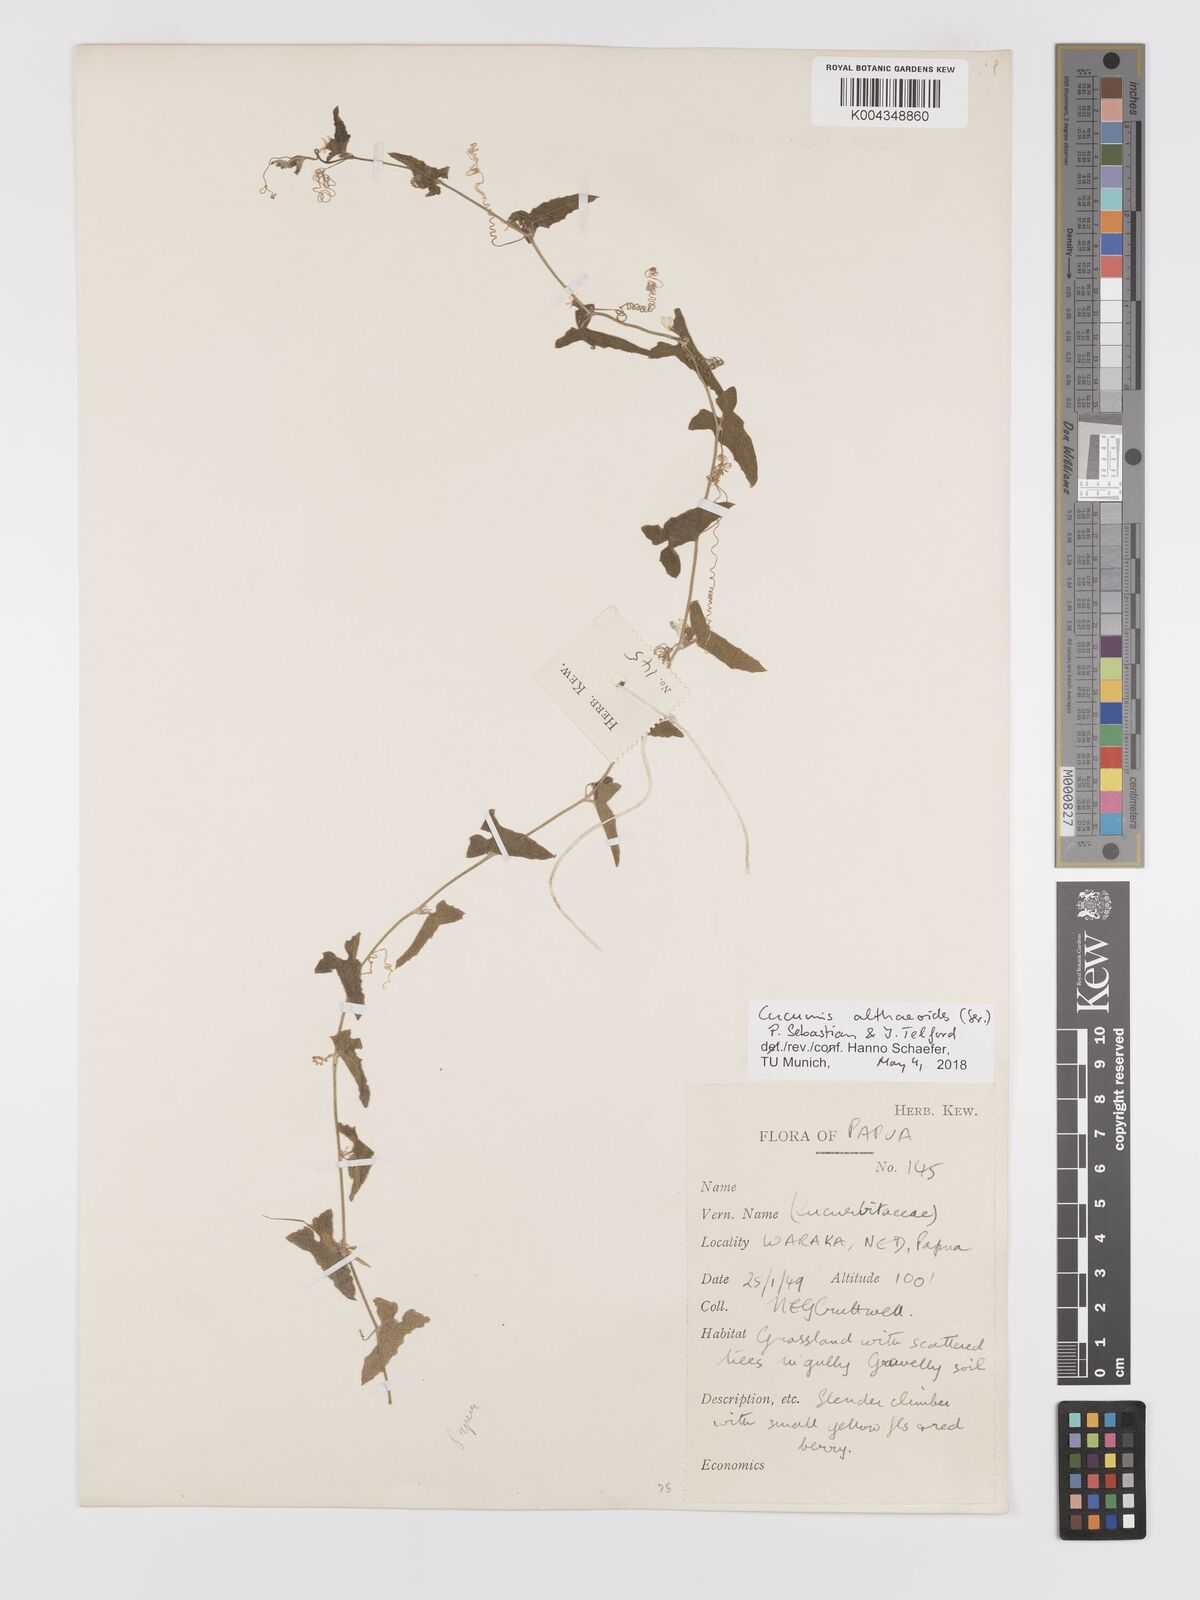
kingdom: Plantae
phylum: Tracheophyta
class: Magnoliopsida
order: Cucurbitales
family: Cucurbitaceae
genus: Cucumis
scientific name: Cucumis maderaspatanus
